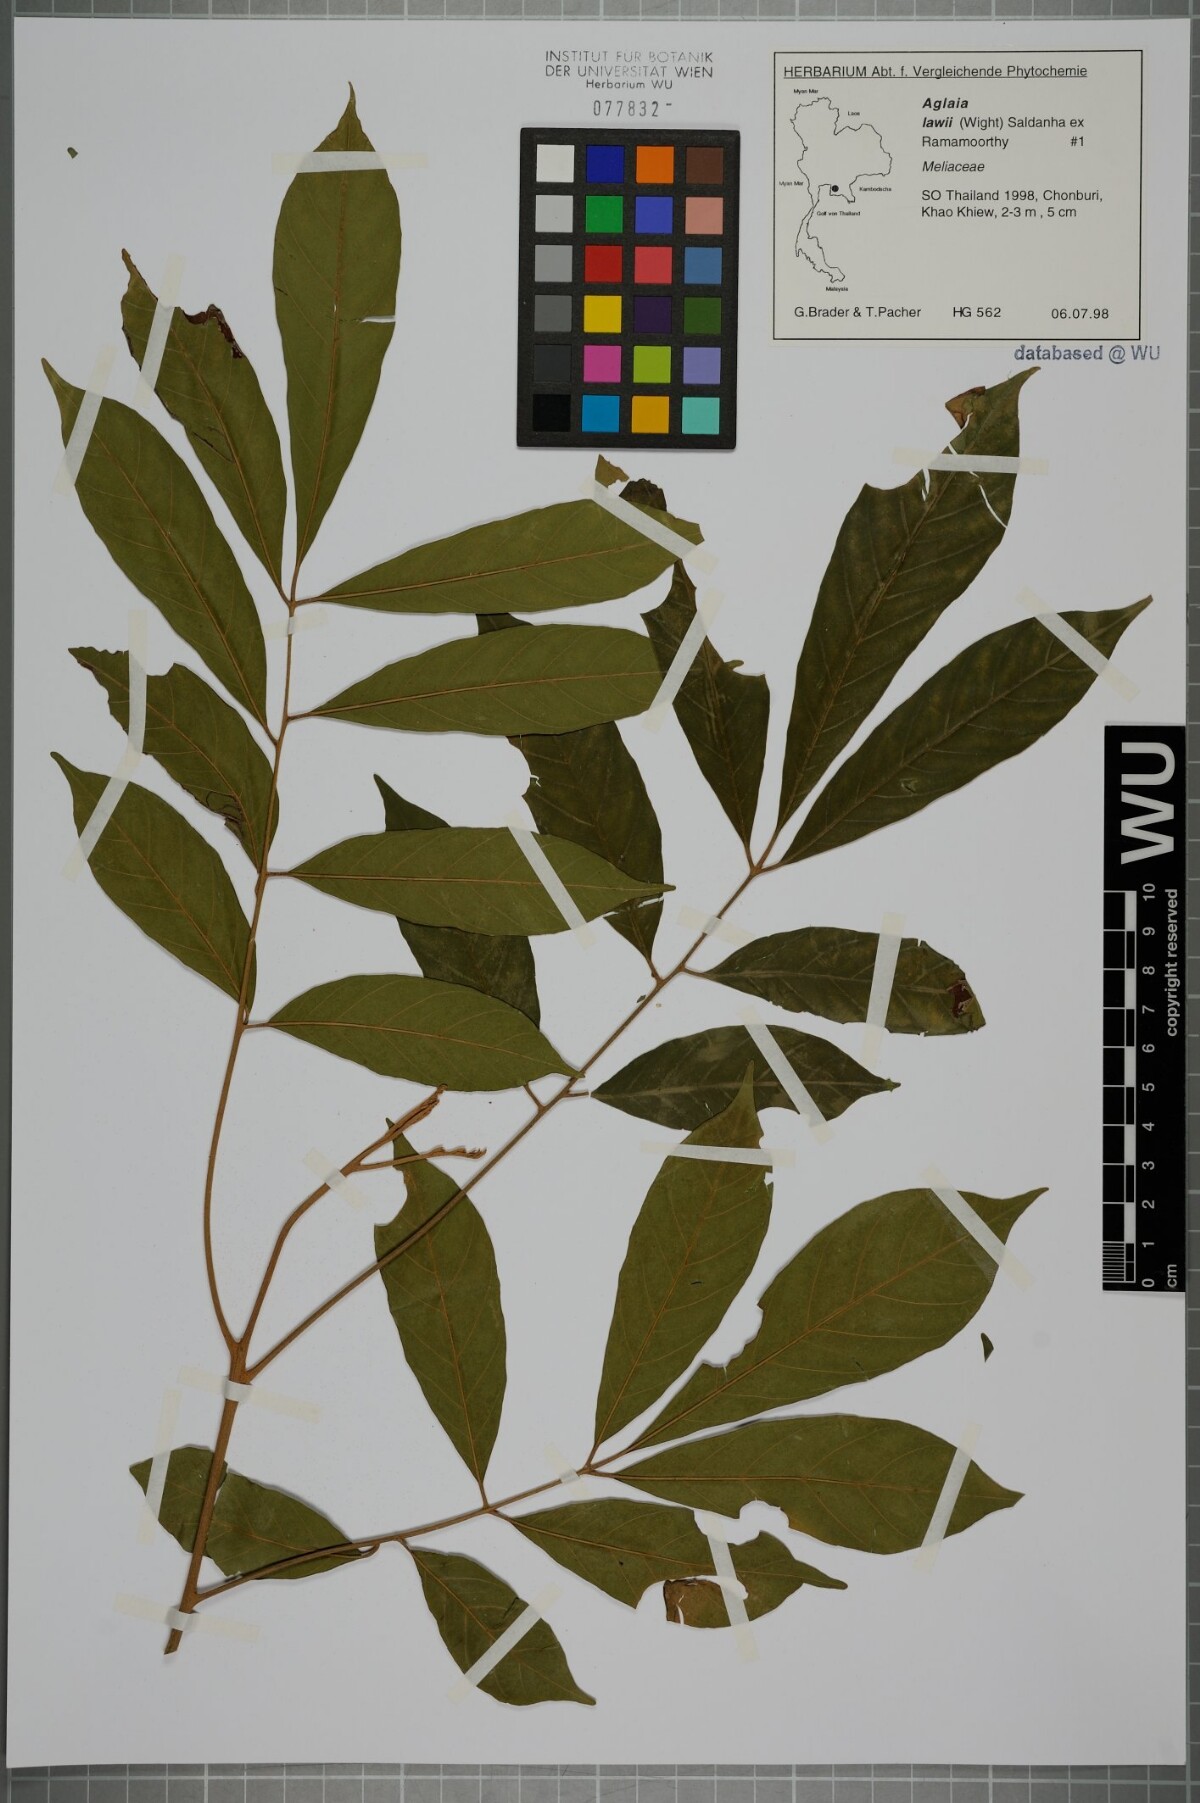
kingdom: Plantae
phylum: Tracheophyta
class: Magnoliopsida
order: Sapindales
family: Meliaceae
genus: Aglaia
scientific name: Aglaia lawii
